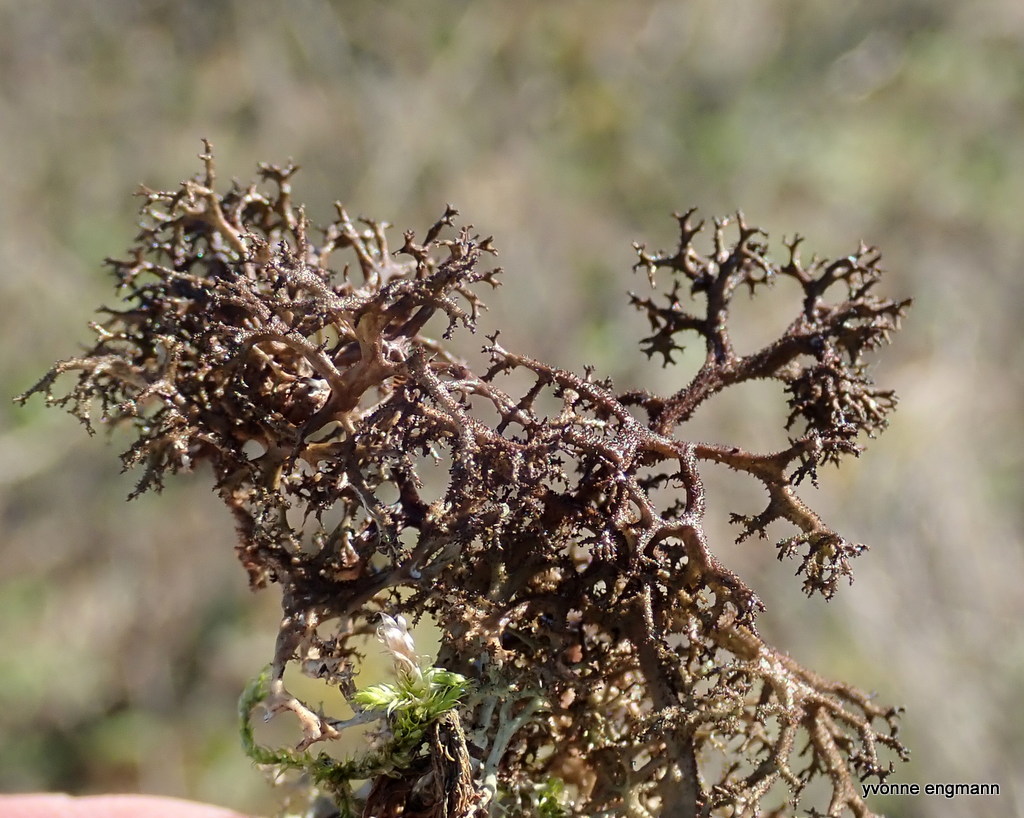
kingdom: Fungi
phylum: Ascomycota
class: Lecanoromycetes
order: Lecanorales
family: Parmeliaceae
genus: Cetraria
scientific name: Cetraria muricata
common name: tue-tjørnelav
